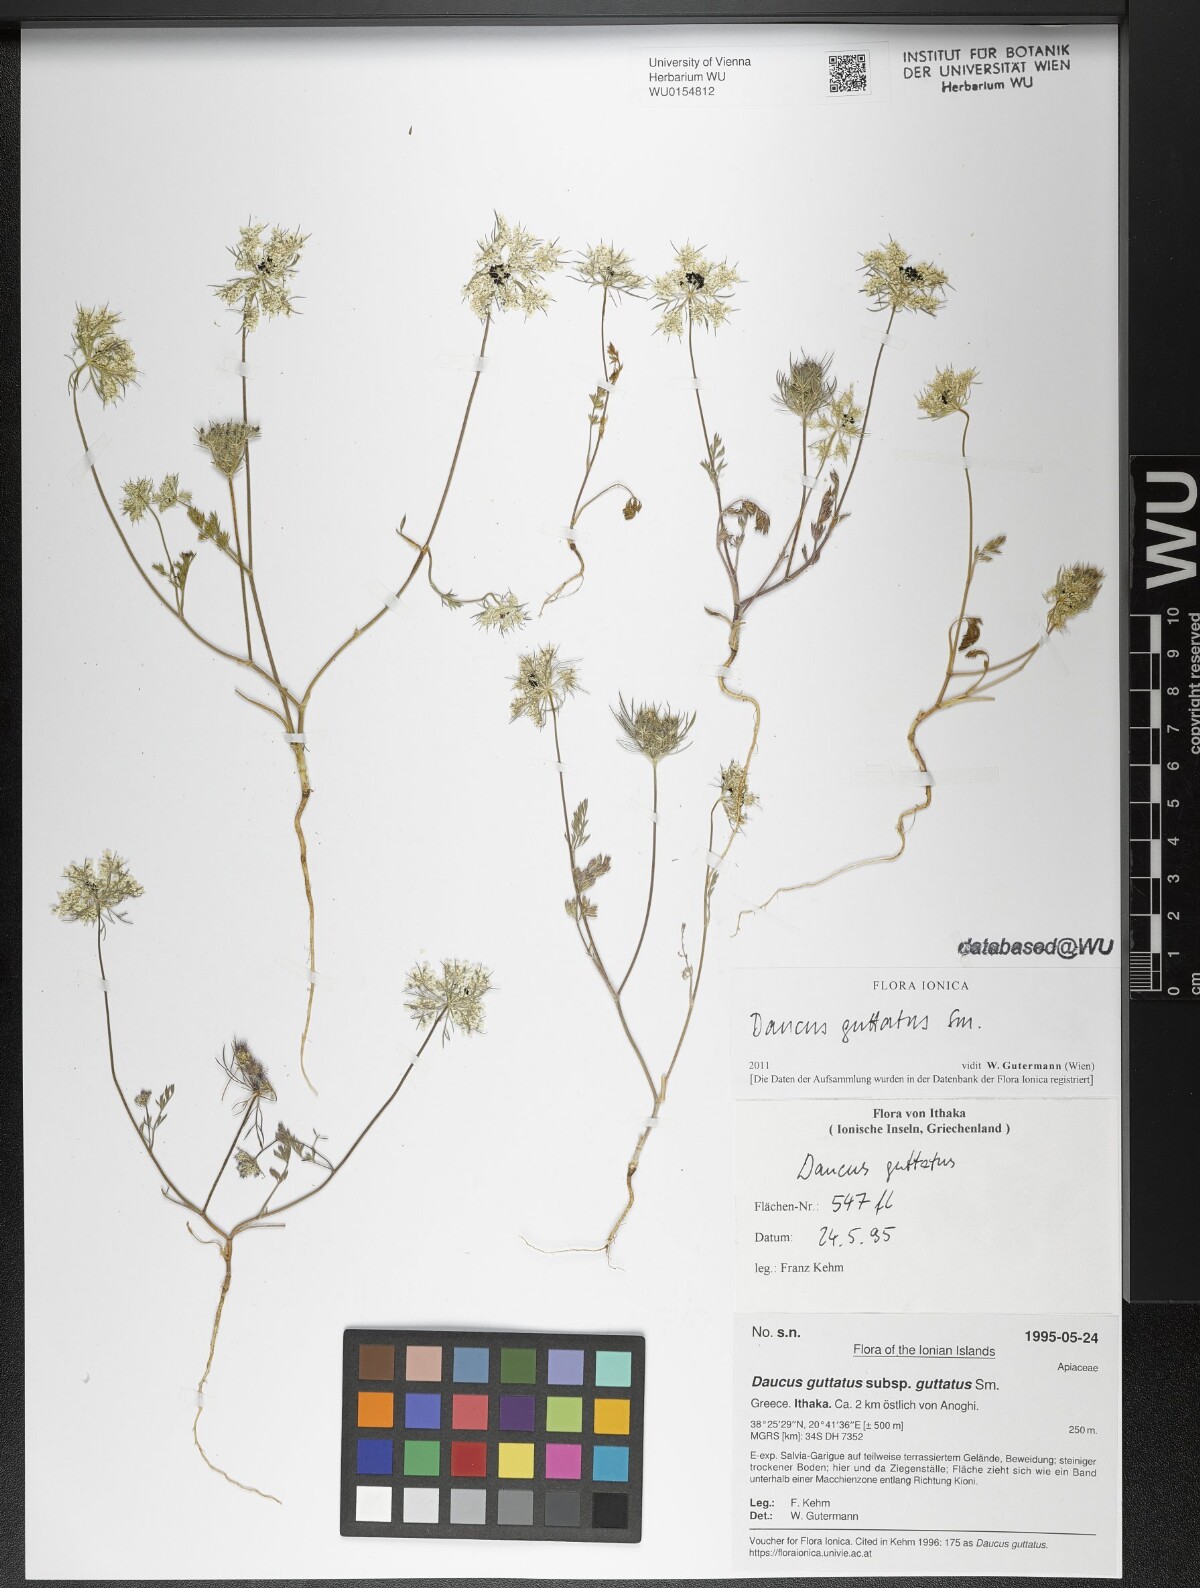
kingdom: Plantae
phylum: Tracheophyta
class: Magnoliopsida
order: Apiales
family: Apiaceae
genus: Daucus
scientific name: Daucus guttatus
